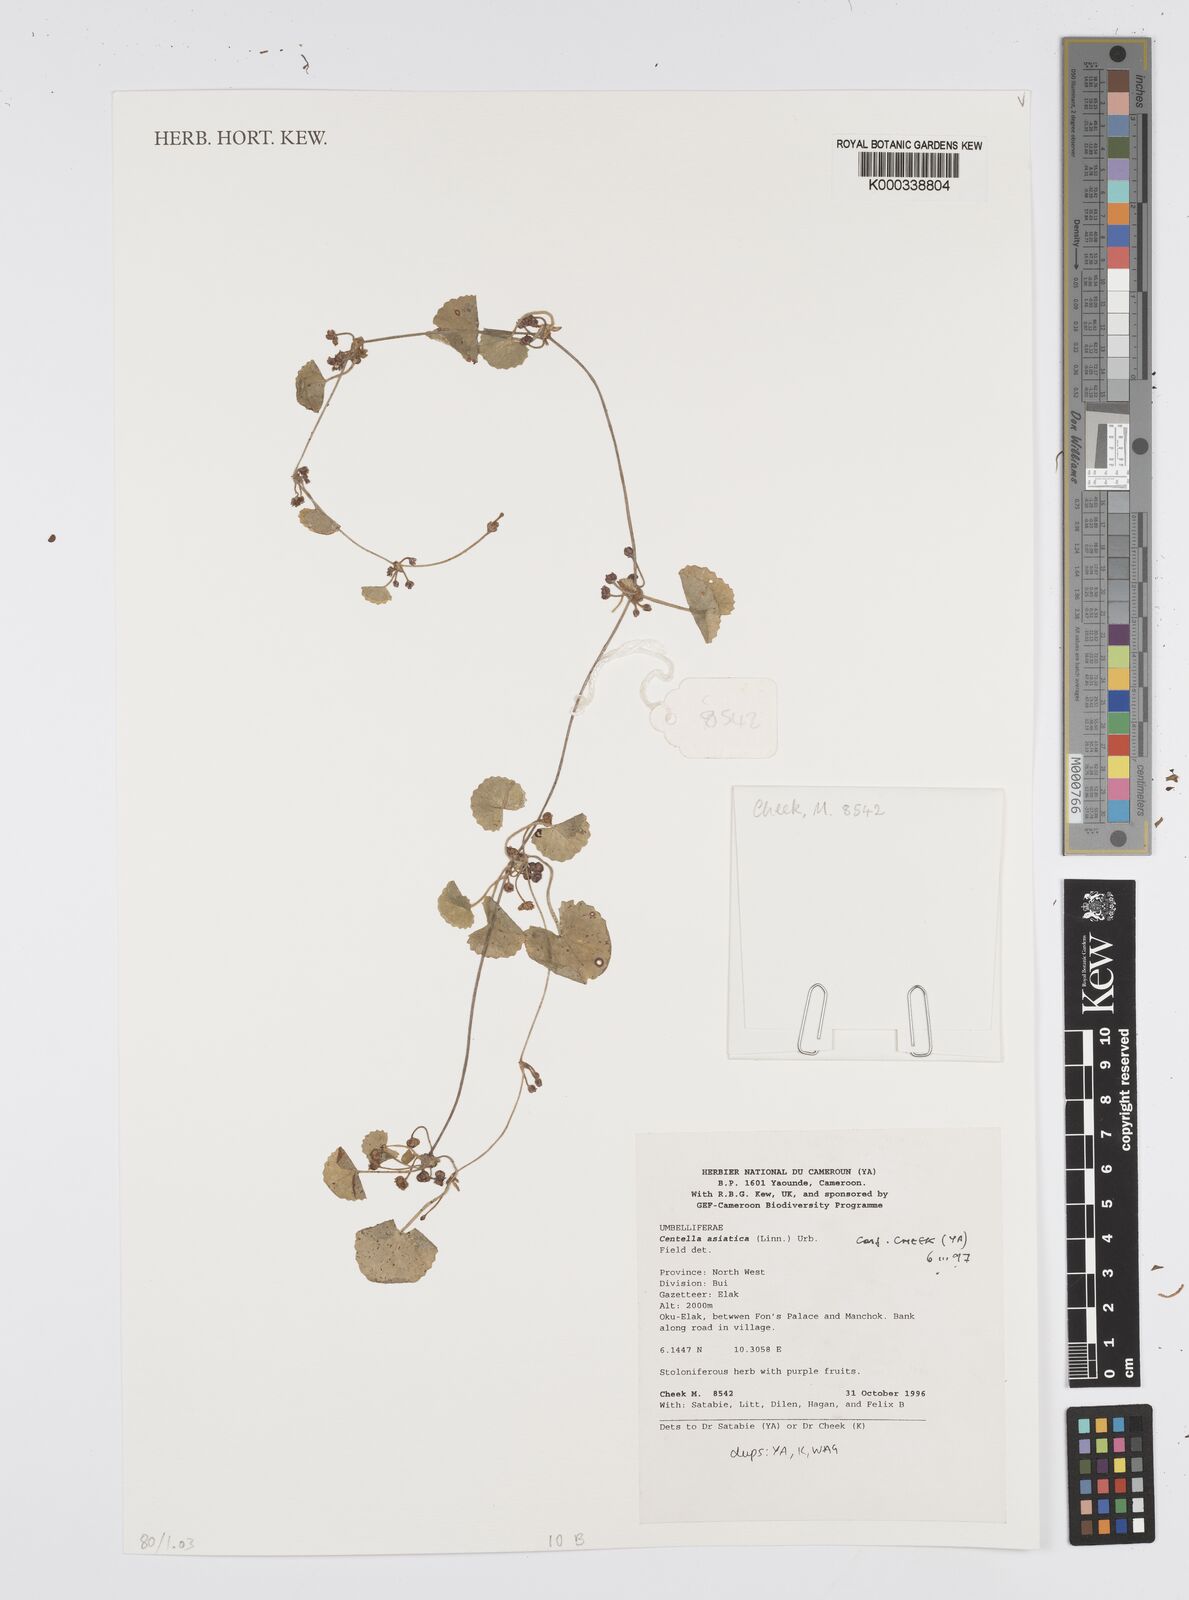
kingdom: Plantae
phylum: Tracheophyta
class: Magnoliopsida
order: Apiales
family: Apiaceae
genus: Centella
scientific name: Centella asiatica
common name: Spadeleaf
